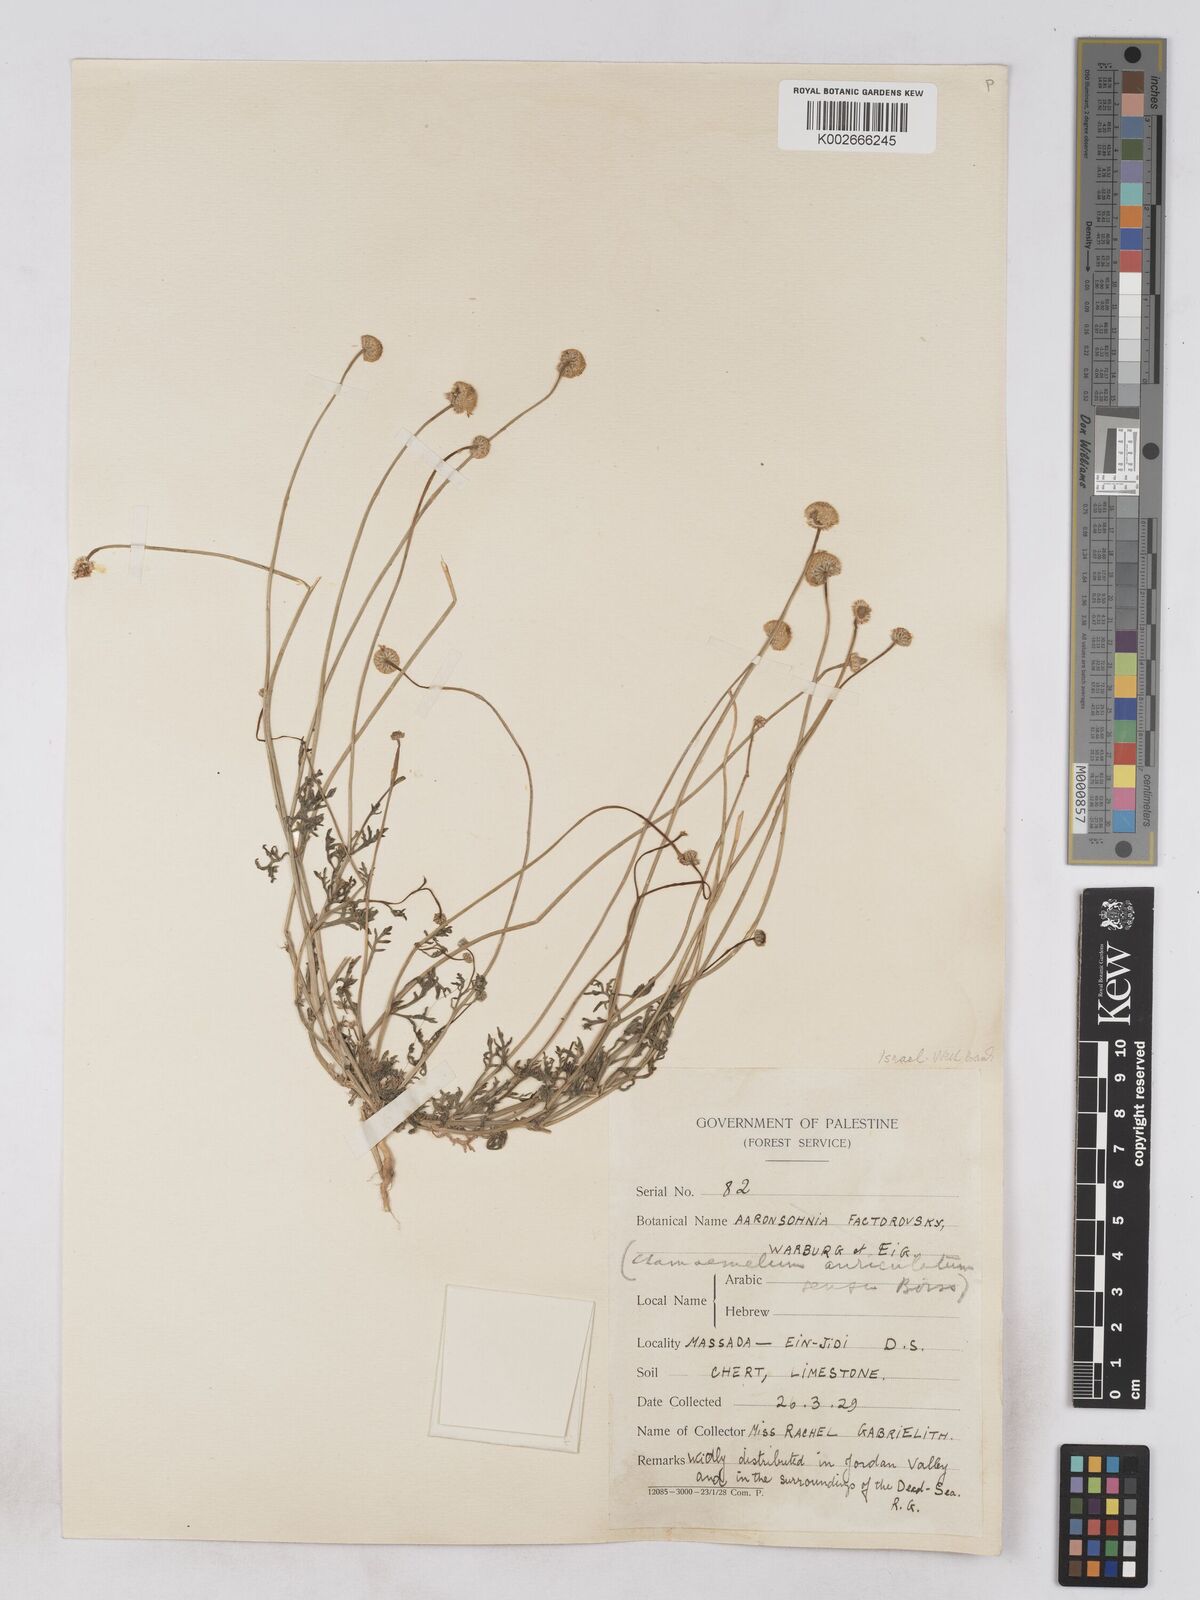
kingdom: Plantae
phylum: Tracheophyta
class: Magnoliopsida
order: Asterales
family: Asteraceae
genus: Otoglyphis
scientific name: Otoglyphis factorovskyi
